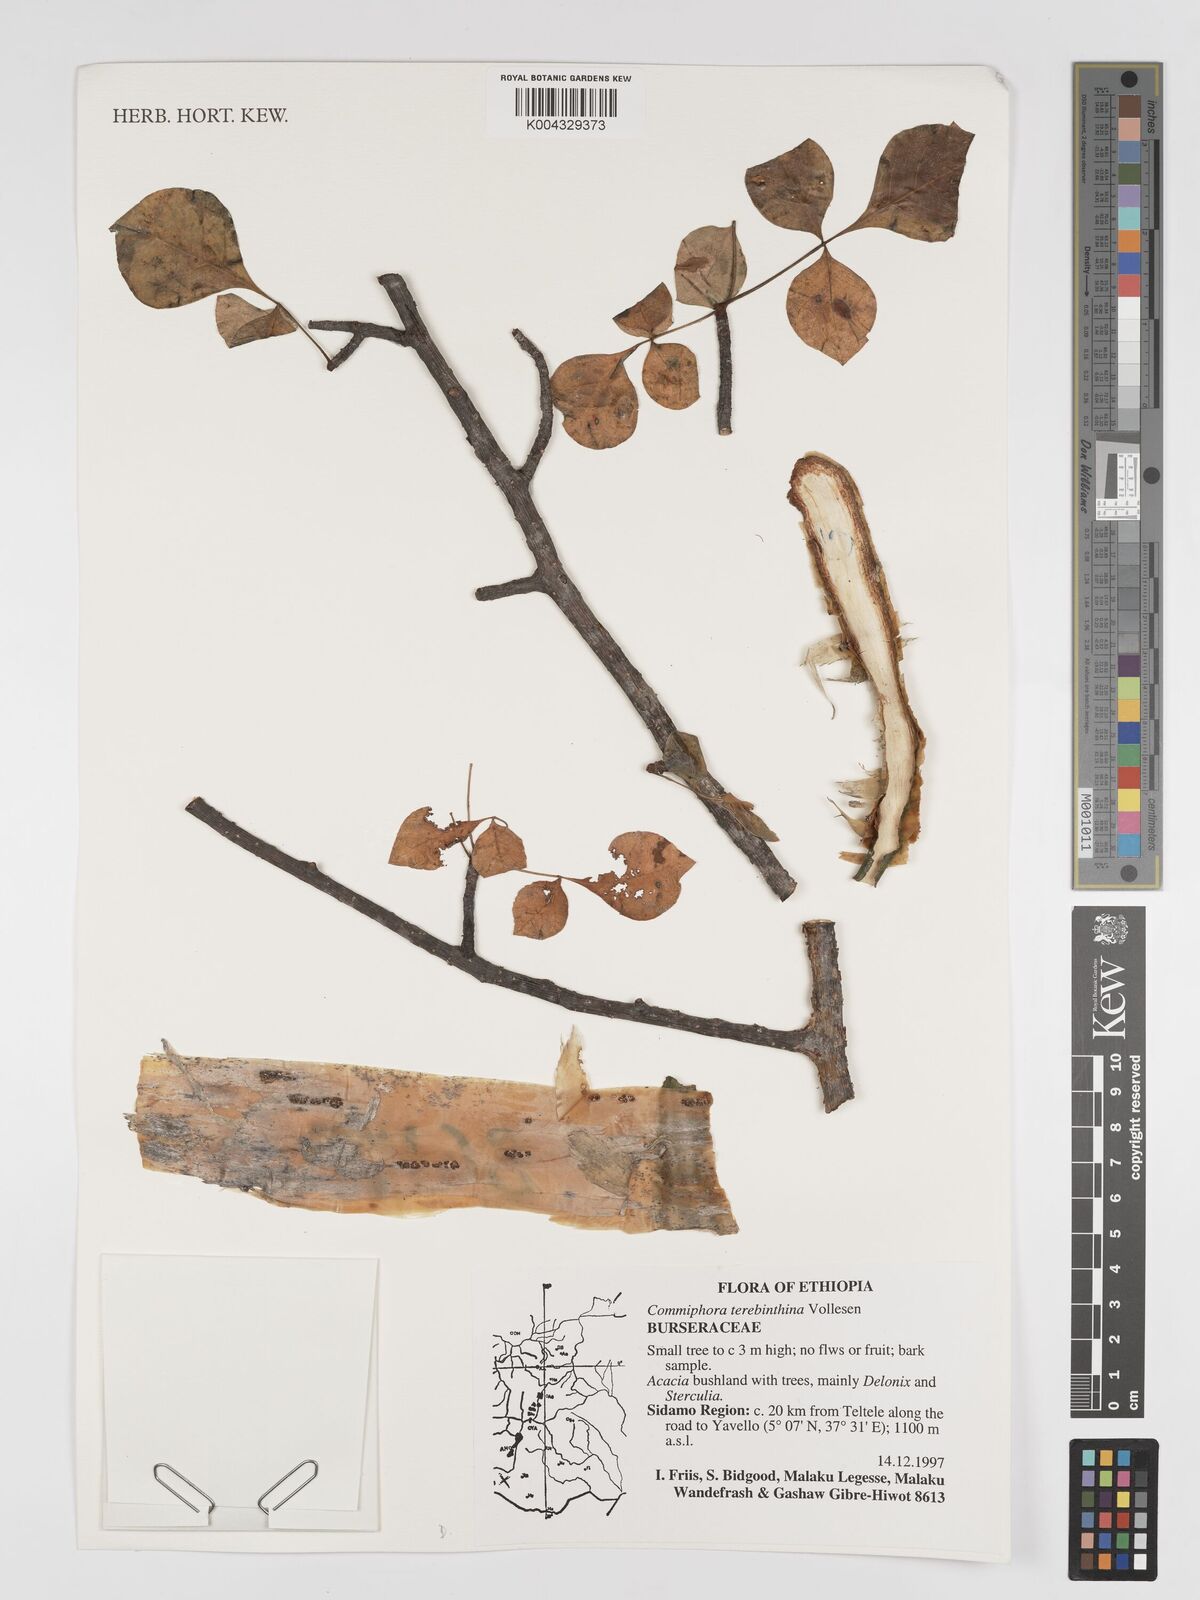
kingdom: Plantae
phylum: Tracheophyta
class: Magnoliopsida
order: Sapindales
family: Burseraceae
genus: Commiphora
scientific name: Commiphora samharensis
